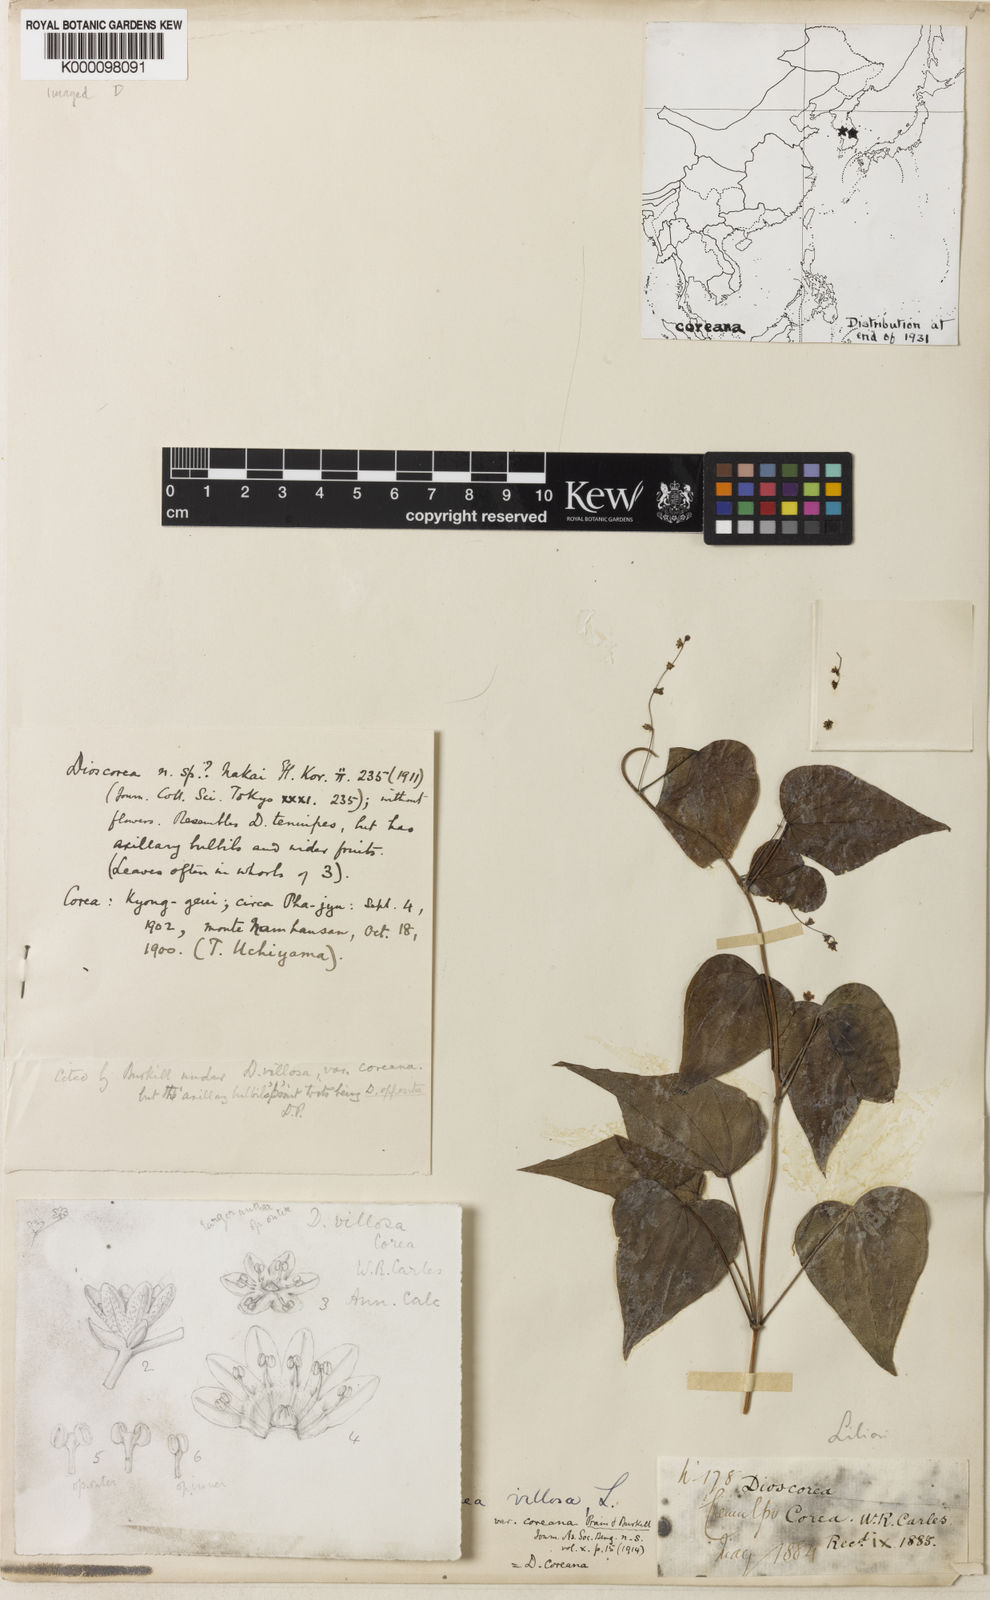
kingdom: Plantae
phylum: Tracheophyta
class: Liliopsida
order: Dioscoreales
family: Dioscoreaceae
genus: Dioscorea
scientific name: Dioscorea coreana
